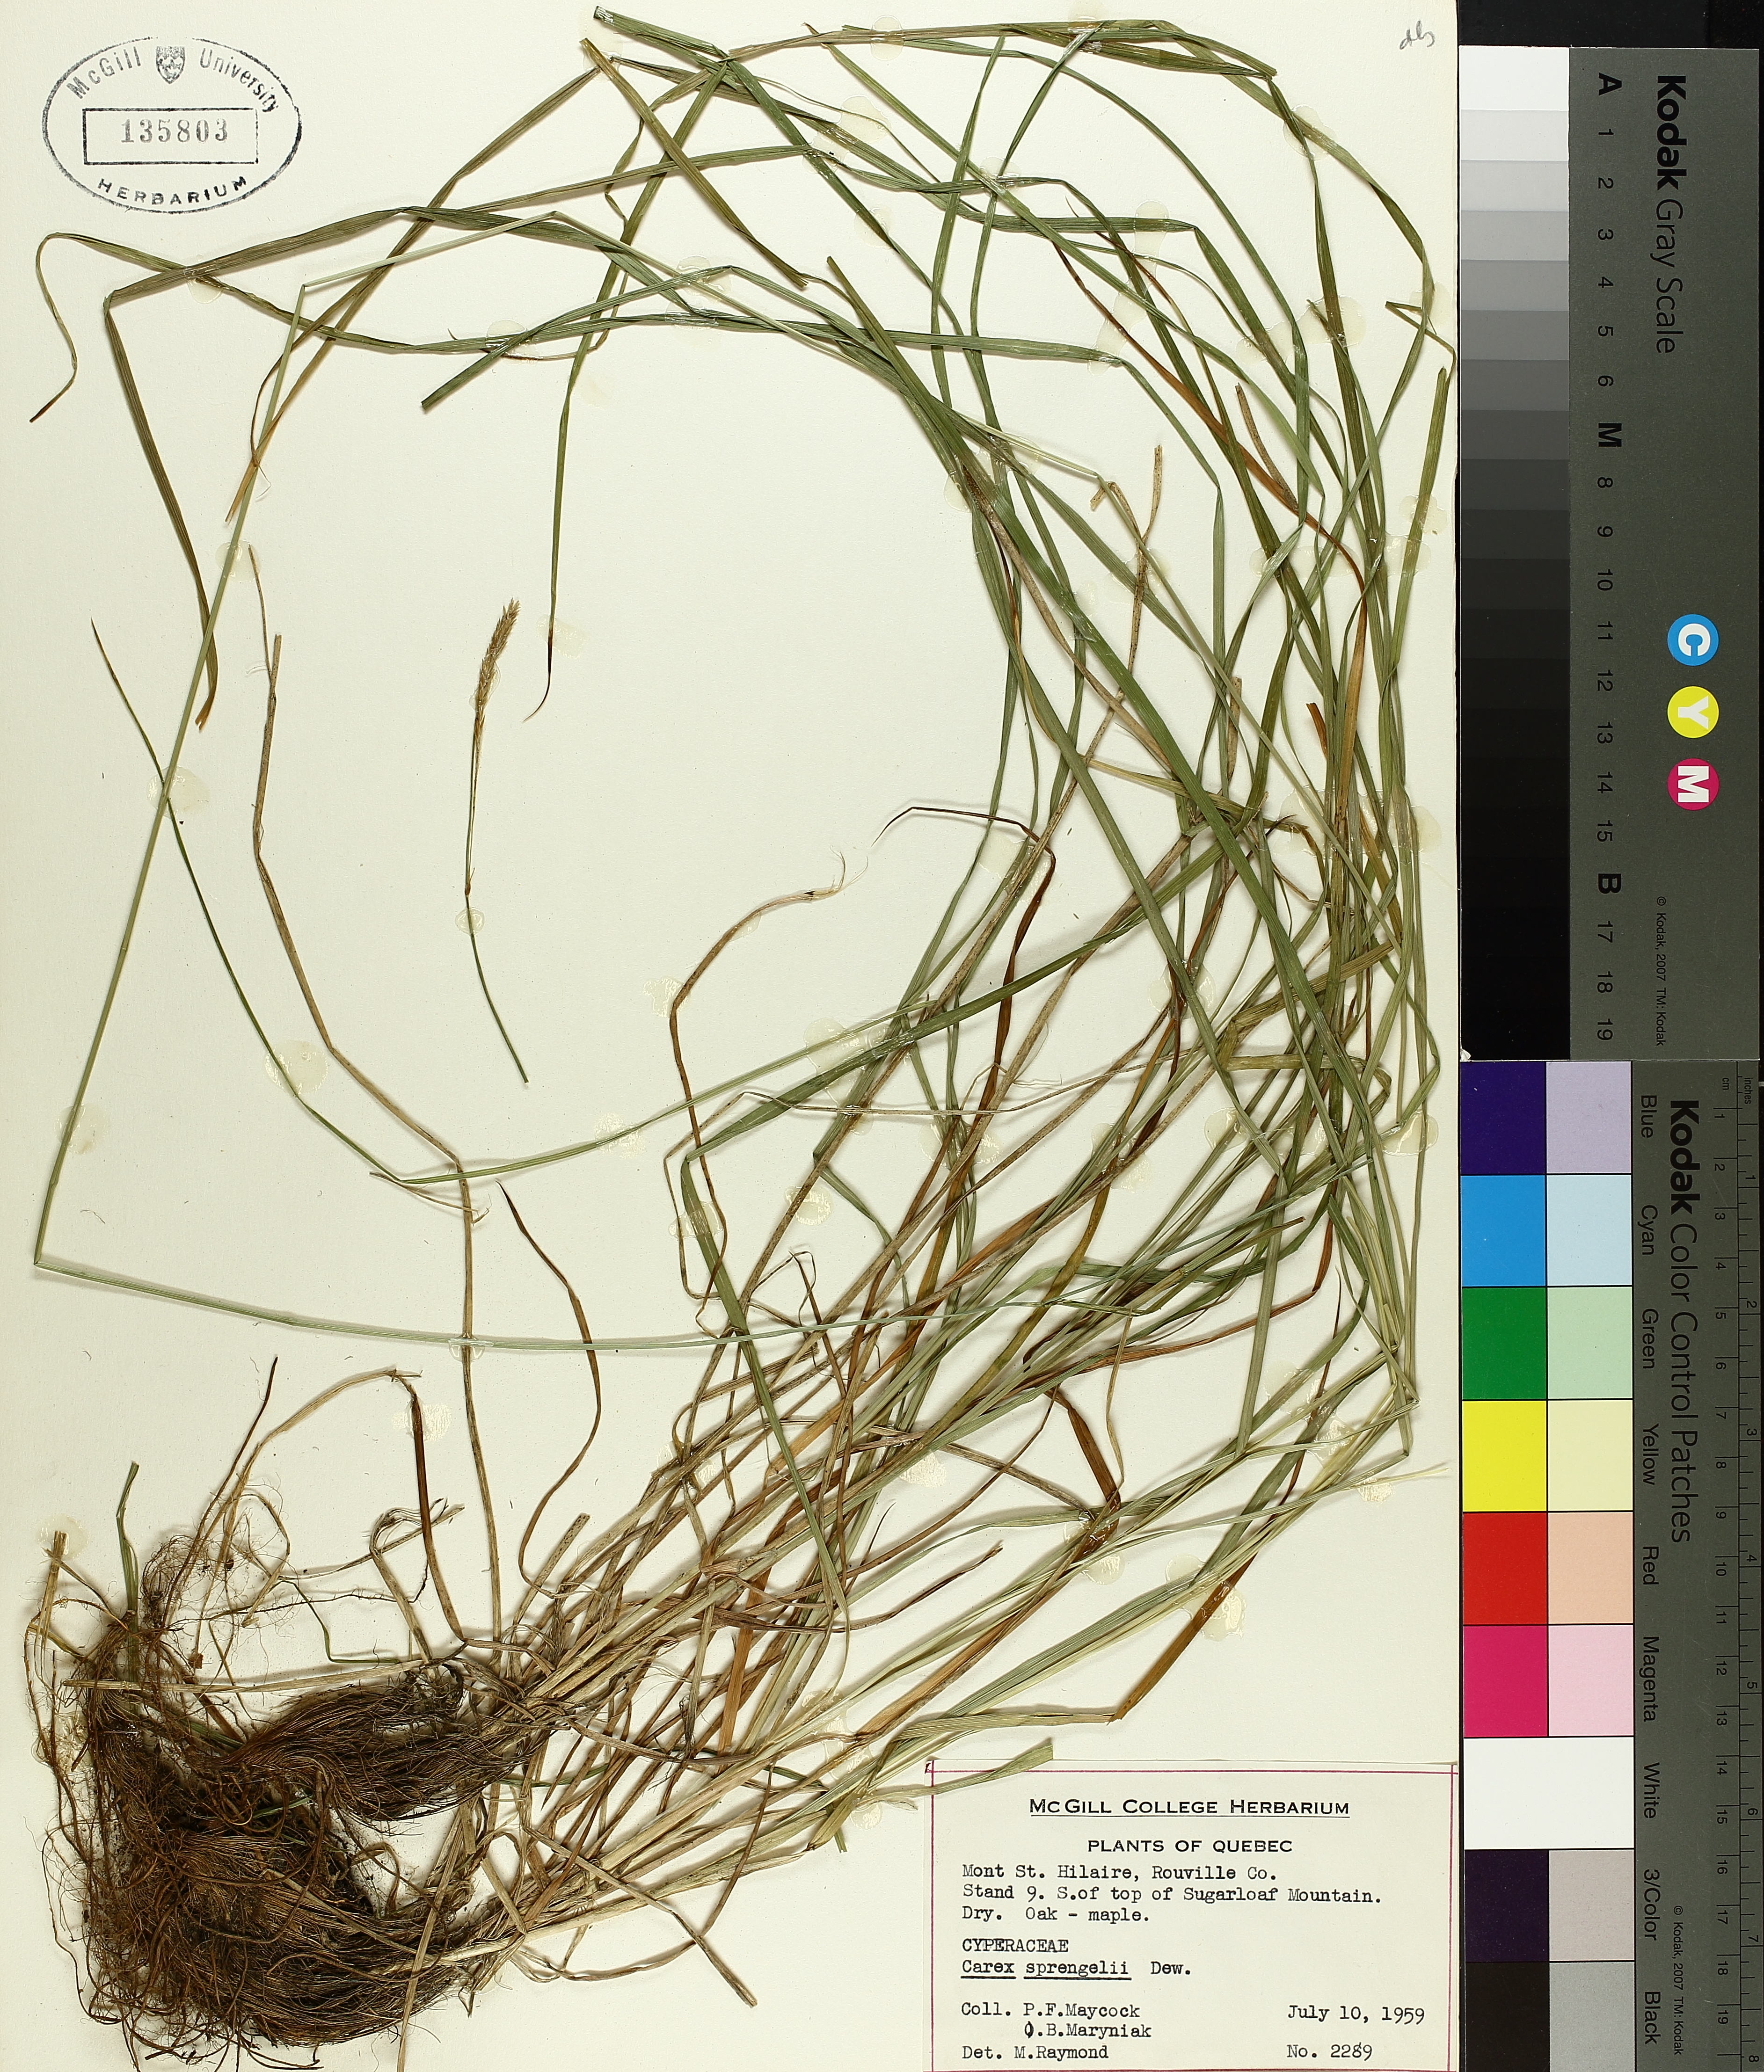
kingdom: Plantae
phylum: Tracheophyta
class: Liliopsida
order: Poales
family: Cyperaceae
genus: Carex
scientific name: Carex sprengelii
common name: Long-beaked sedge
